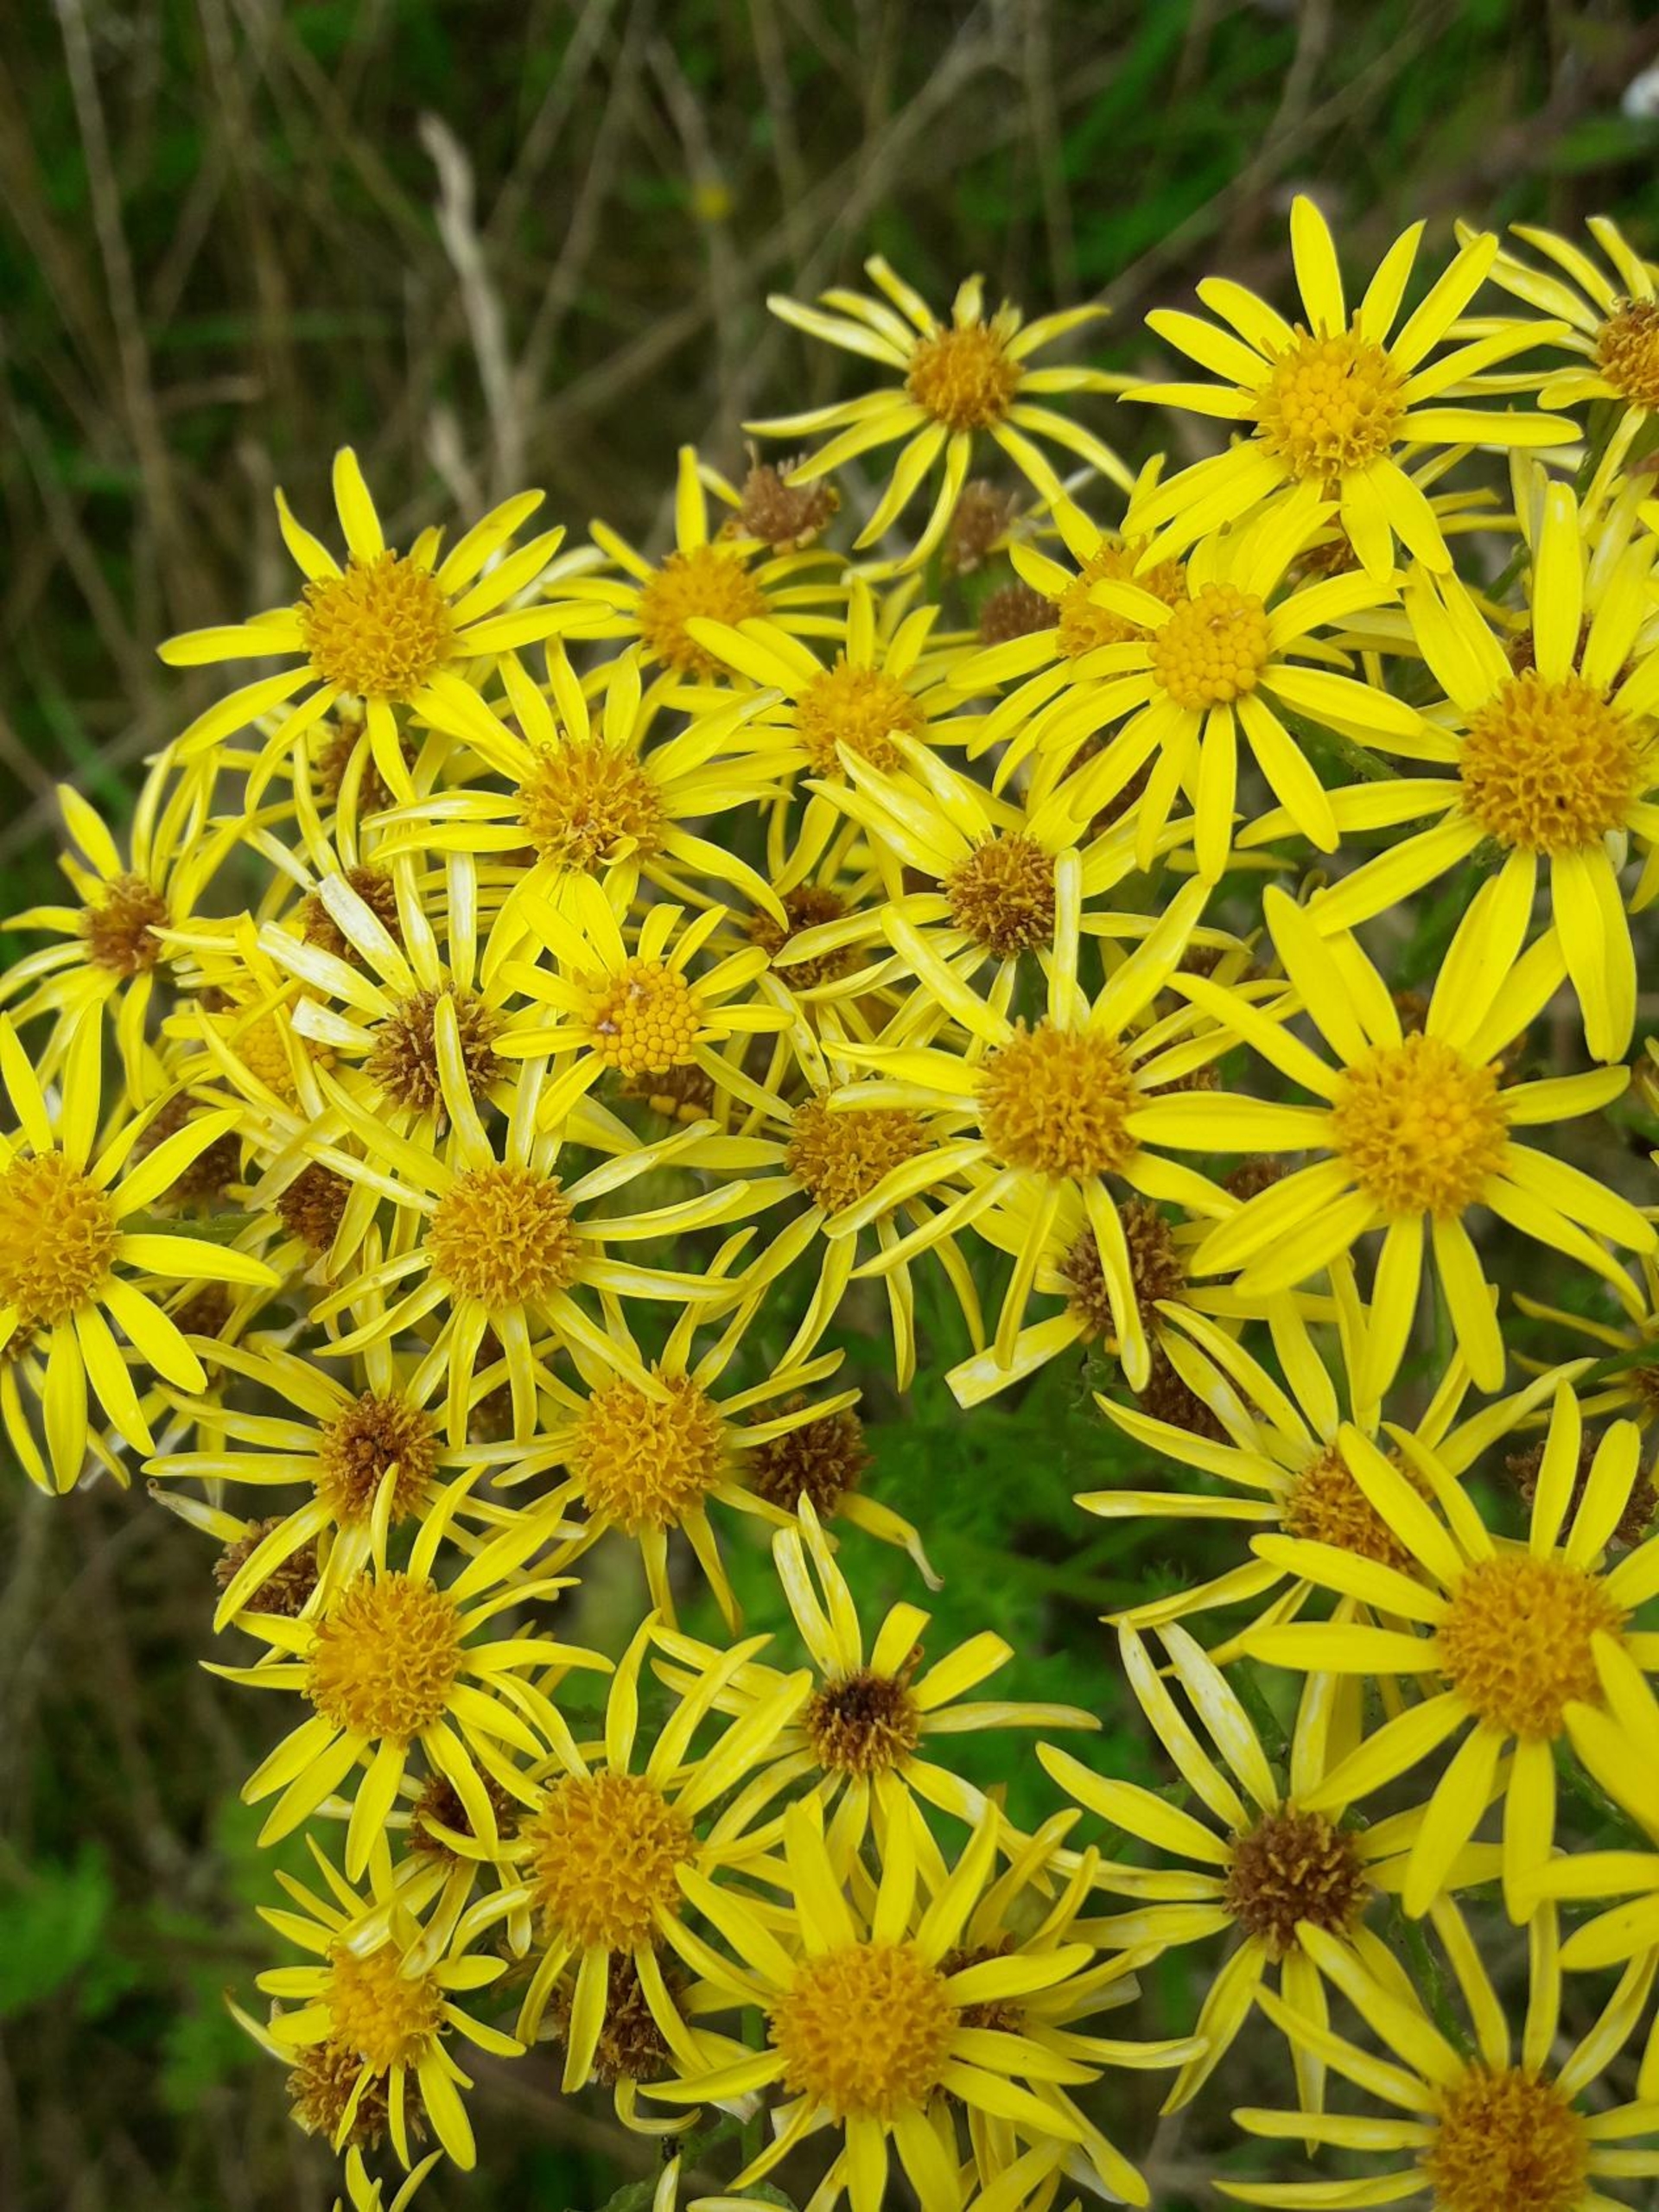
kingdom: Plantae
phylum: Tracheophyta
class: Magnoliopsida
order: Asterales
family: Asteraceae
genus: Jacobaea
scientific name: Jacobaea vulgaris
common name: Eng-brandbæger
